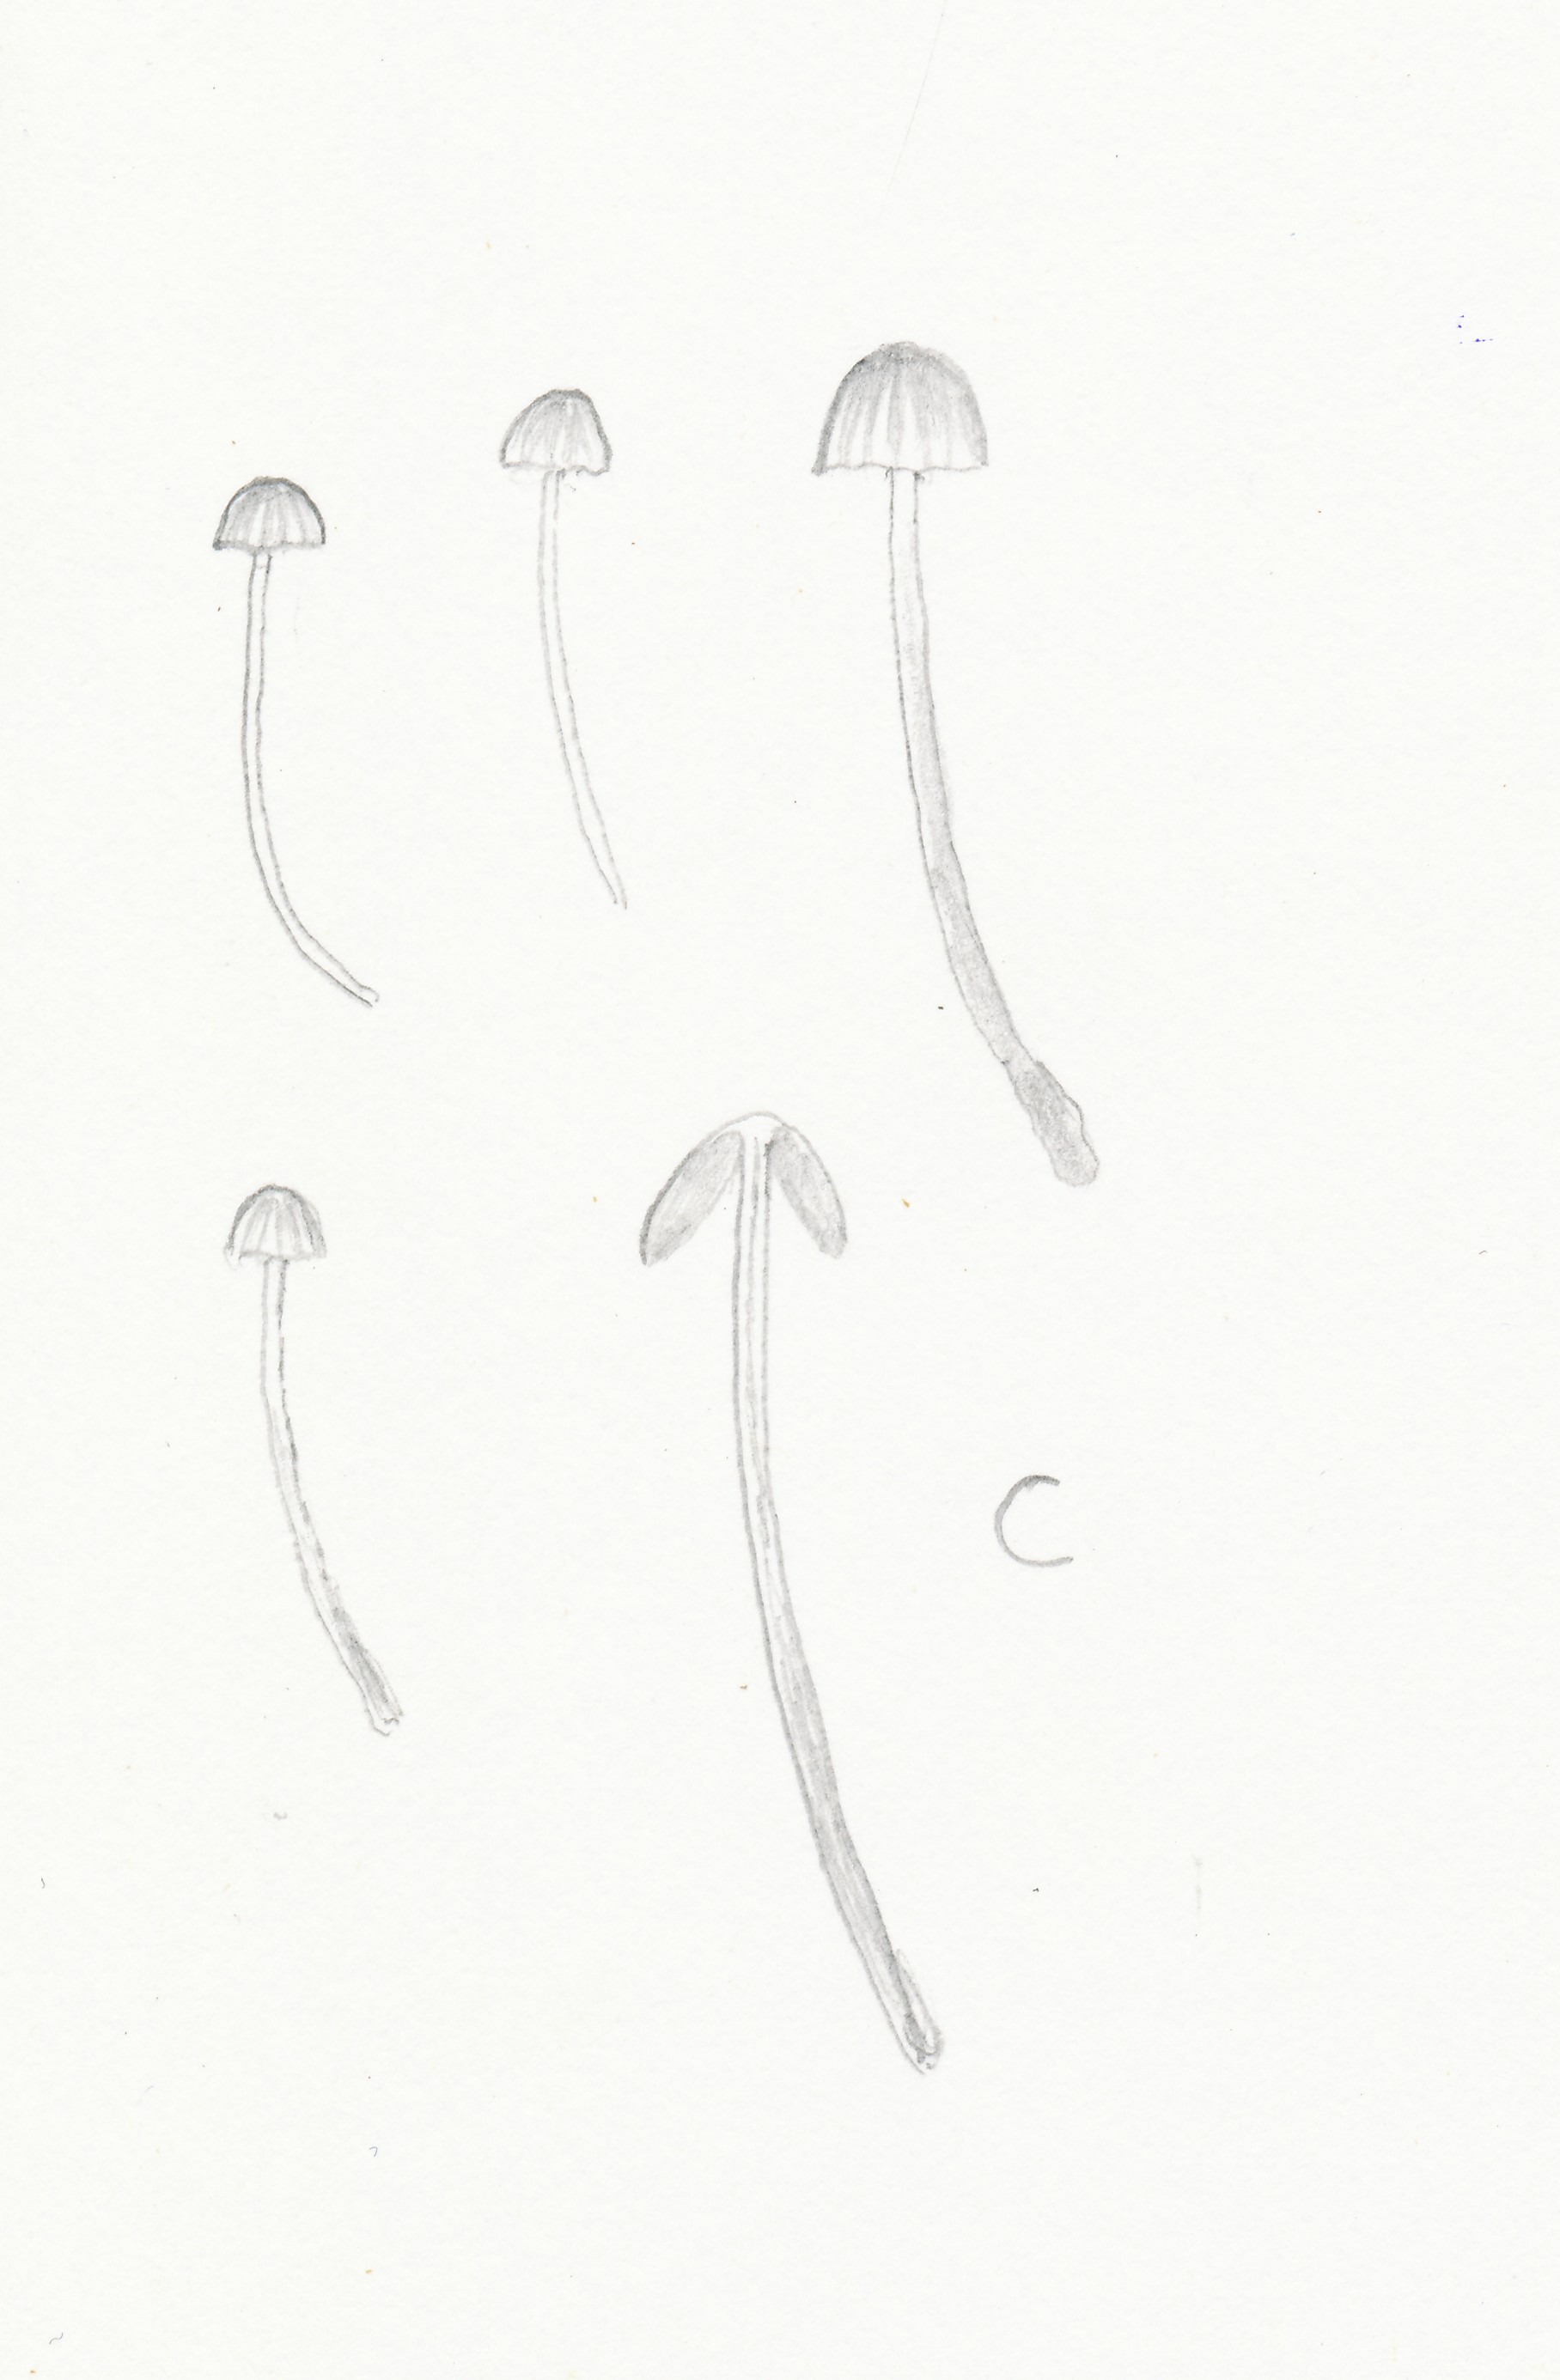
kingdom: Fungi
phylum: Basidiomycota
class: Agaricomycetes
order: Agaricales
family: Hymenogastraceae
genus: Galerina
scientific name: Galerina hypnorum
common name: mos-hjelmhat
